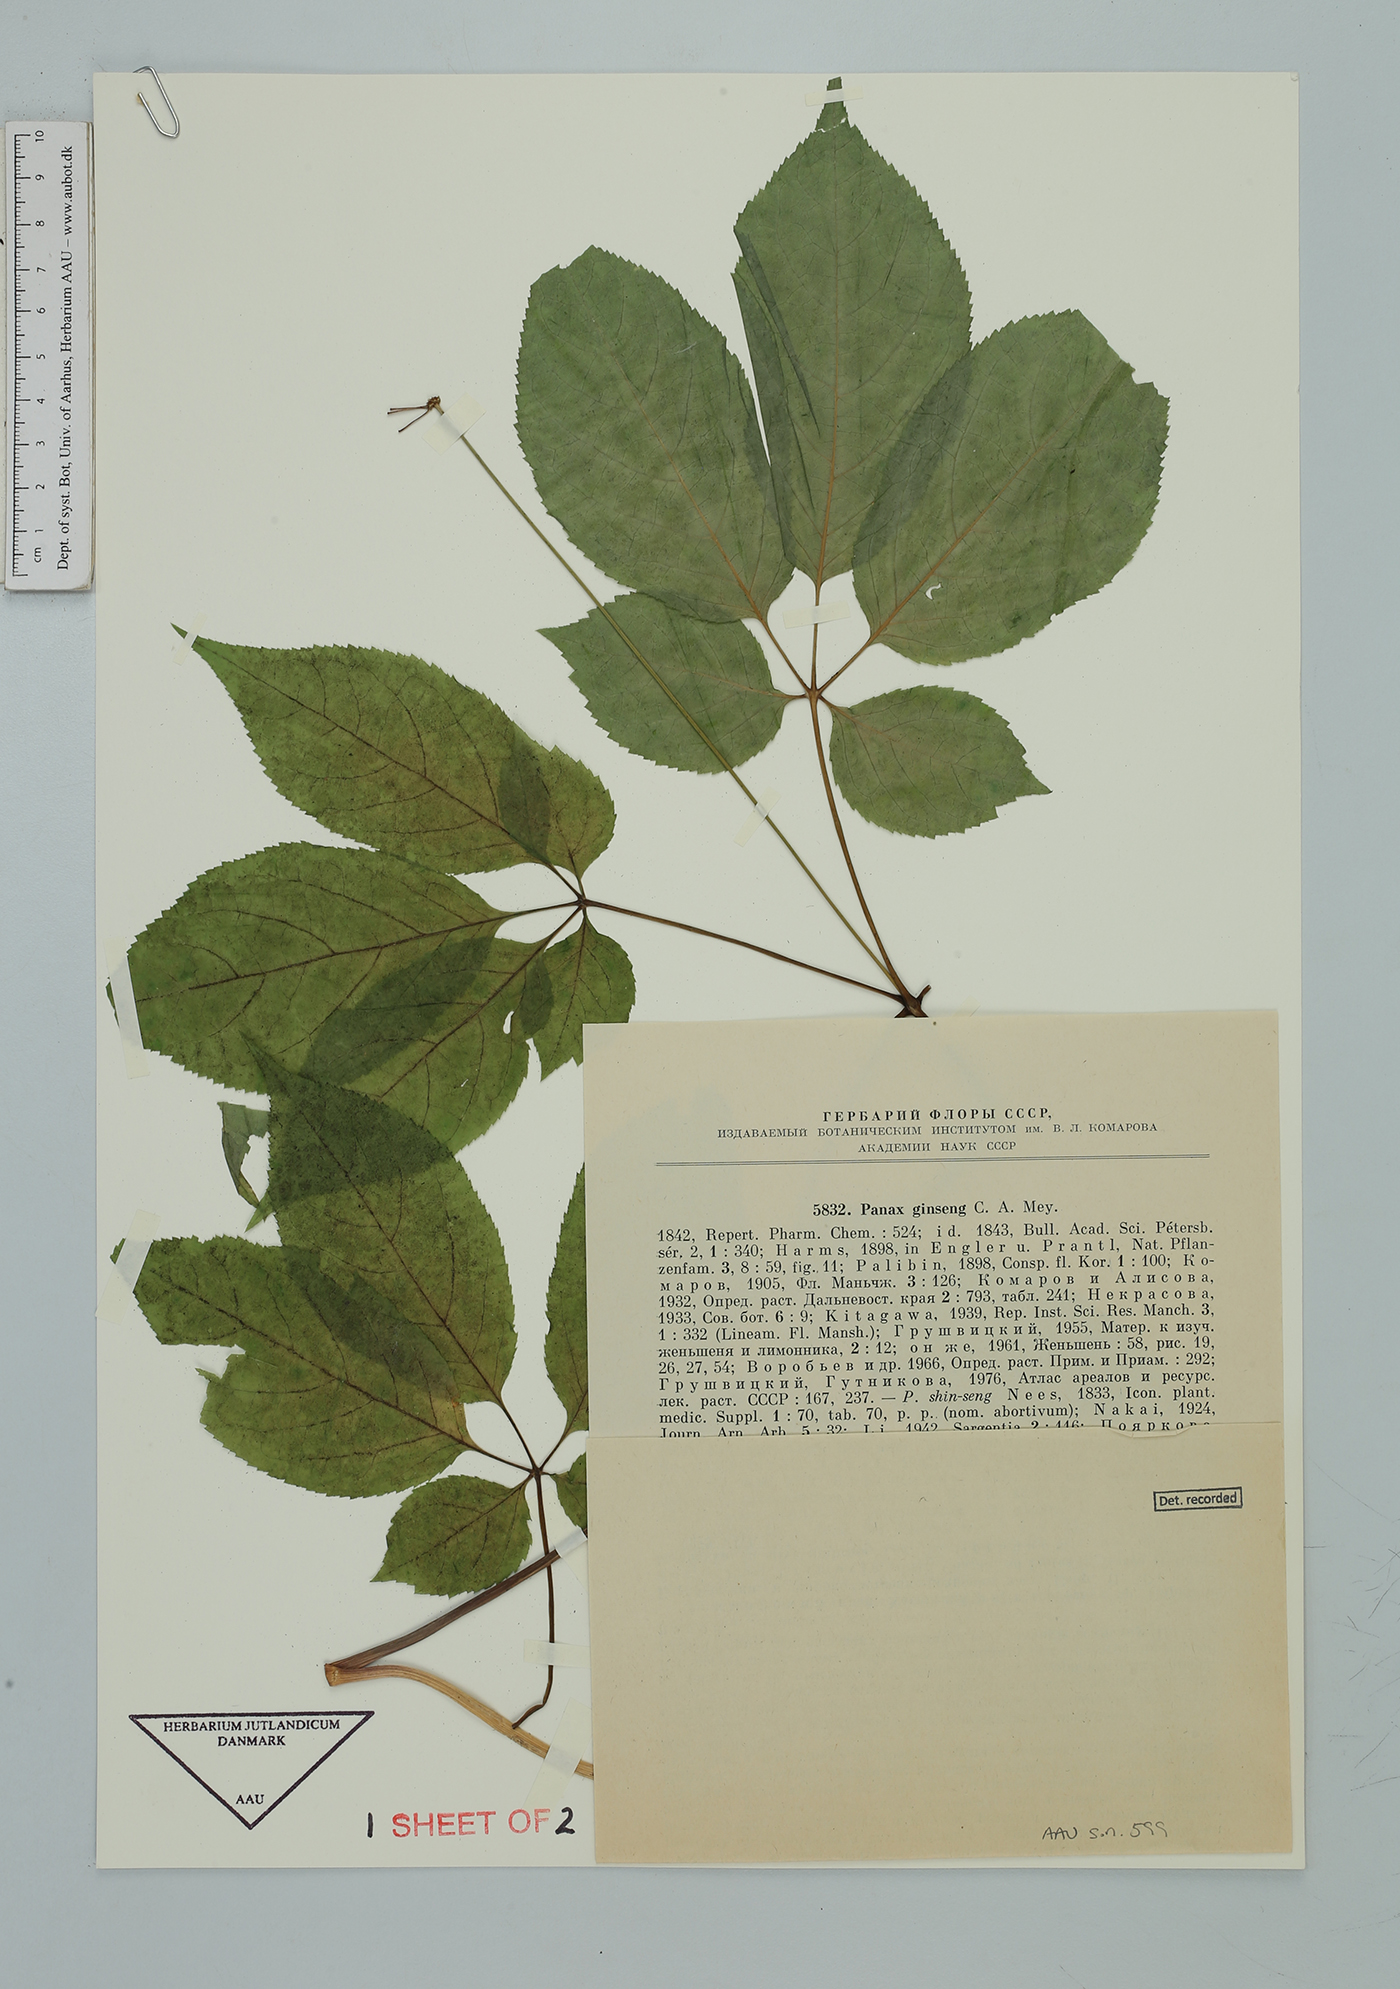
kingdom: Plantae
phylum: Tracheophyta
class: Magnoliopsida
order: Apiales
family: Araliaceae
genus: Panax
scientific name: Panax ginseng
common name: Chinese ginseng
